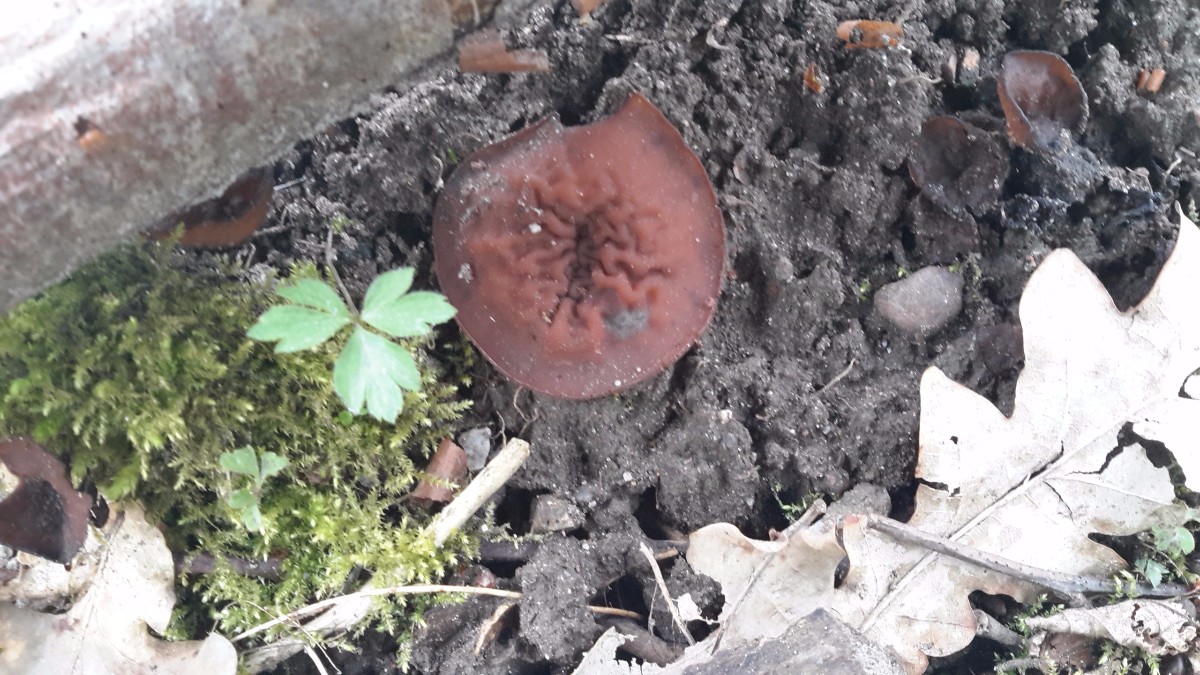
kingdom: Fungi
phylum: Ascomycota
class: Leotiomycetes
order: Helotiales
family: Sclerotiniaceae
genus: Dumontinia
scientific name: Dumontinia tuberosa
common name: anemone-knoldskive
